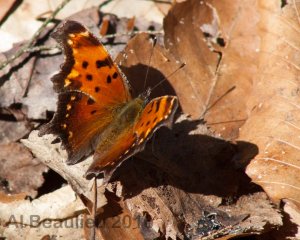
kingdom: Animalia
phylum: Arthropoda
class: Insecta
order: Lepidoptera
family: Nymphalidae
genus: Polygonia
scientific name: Polygonia progne
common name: Gray Comma
